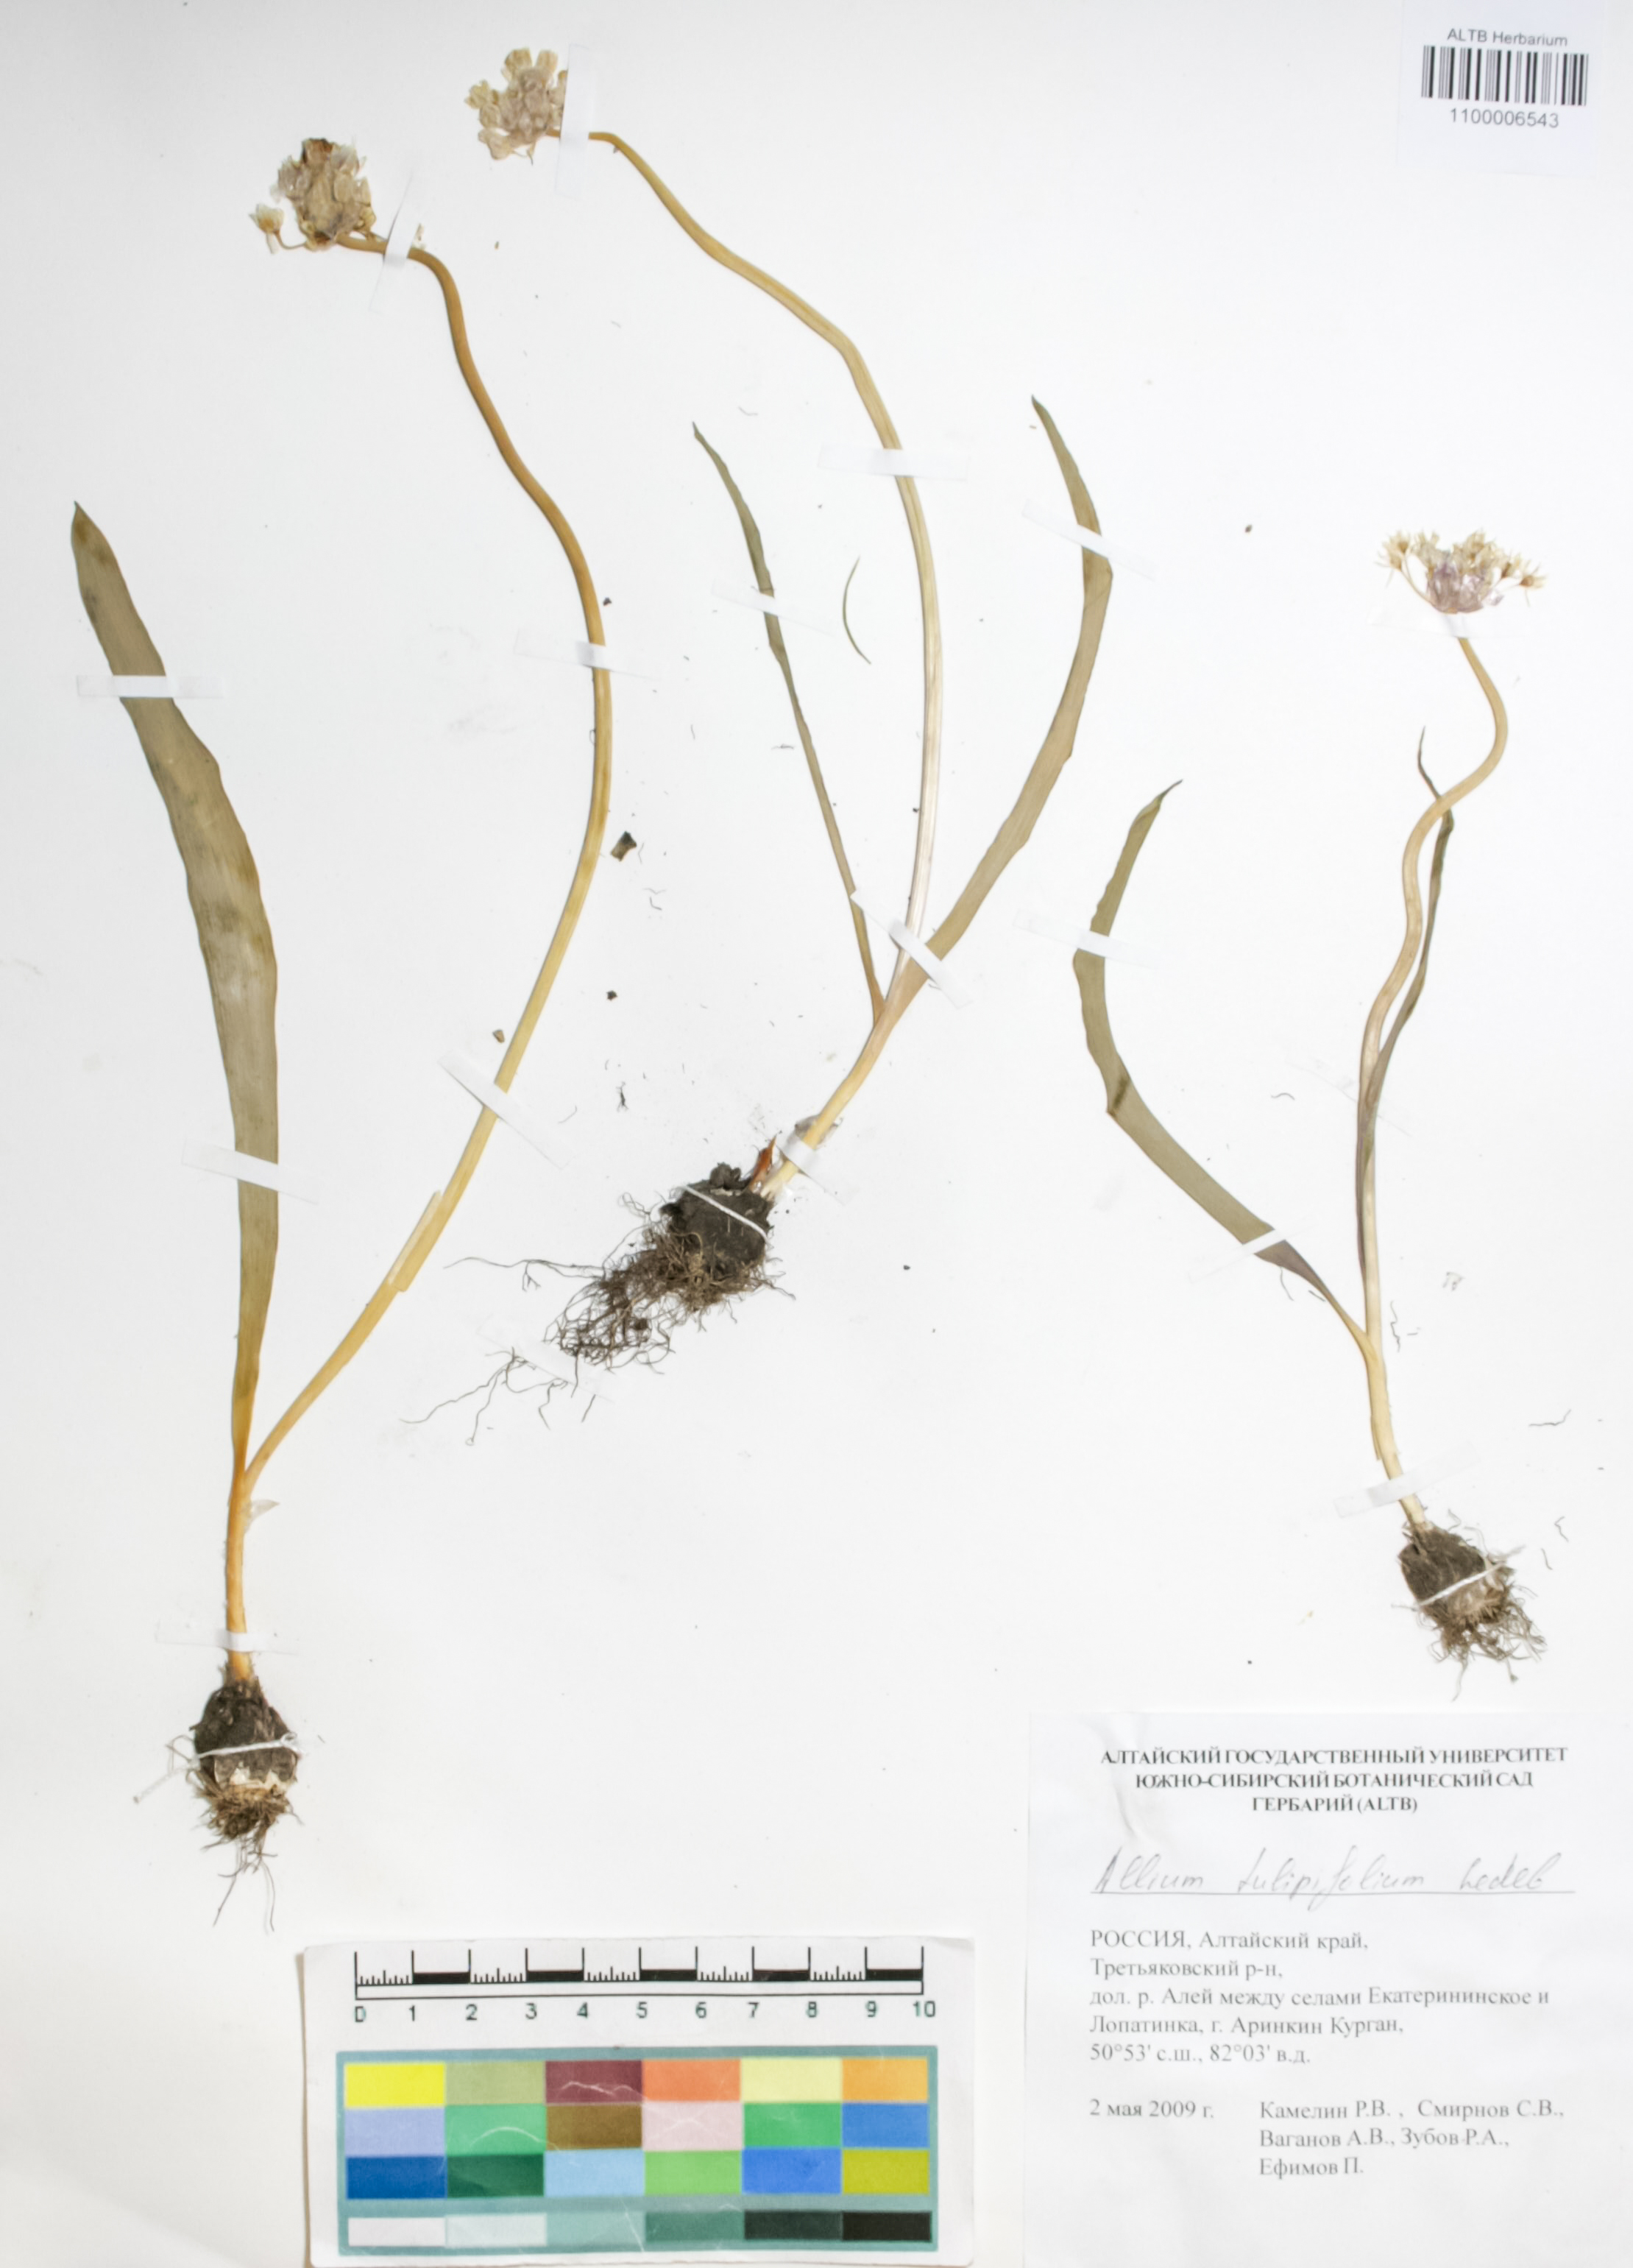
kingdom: Plantae
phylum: Tracheophyta
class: Liliopsida
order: Asparagales
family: Amaryllidaceae
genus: Allium
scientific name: Allium tulipifolium
